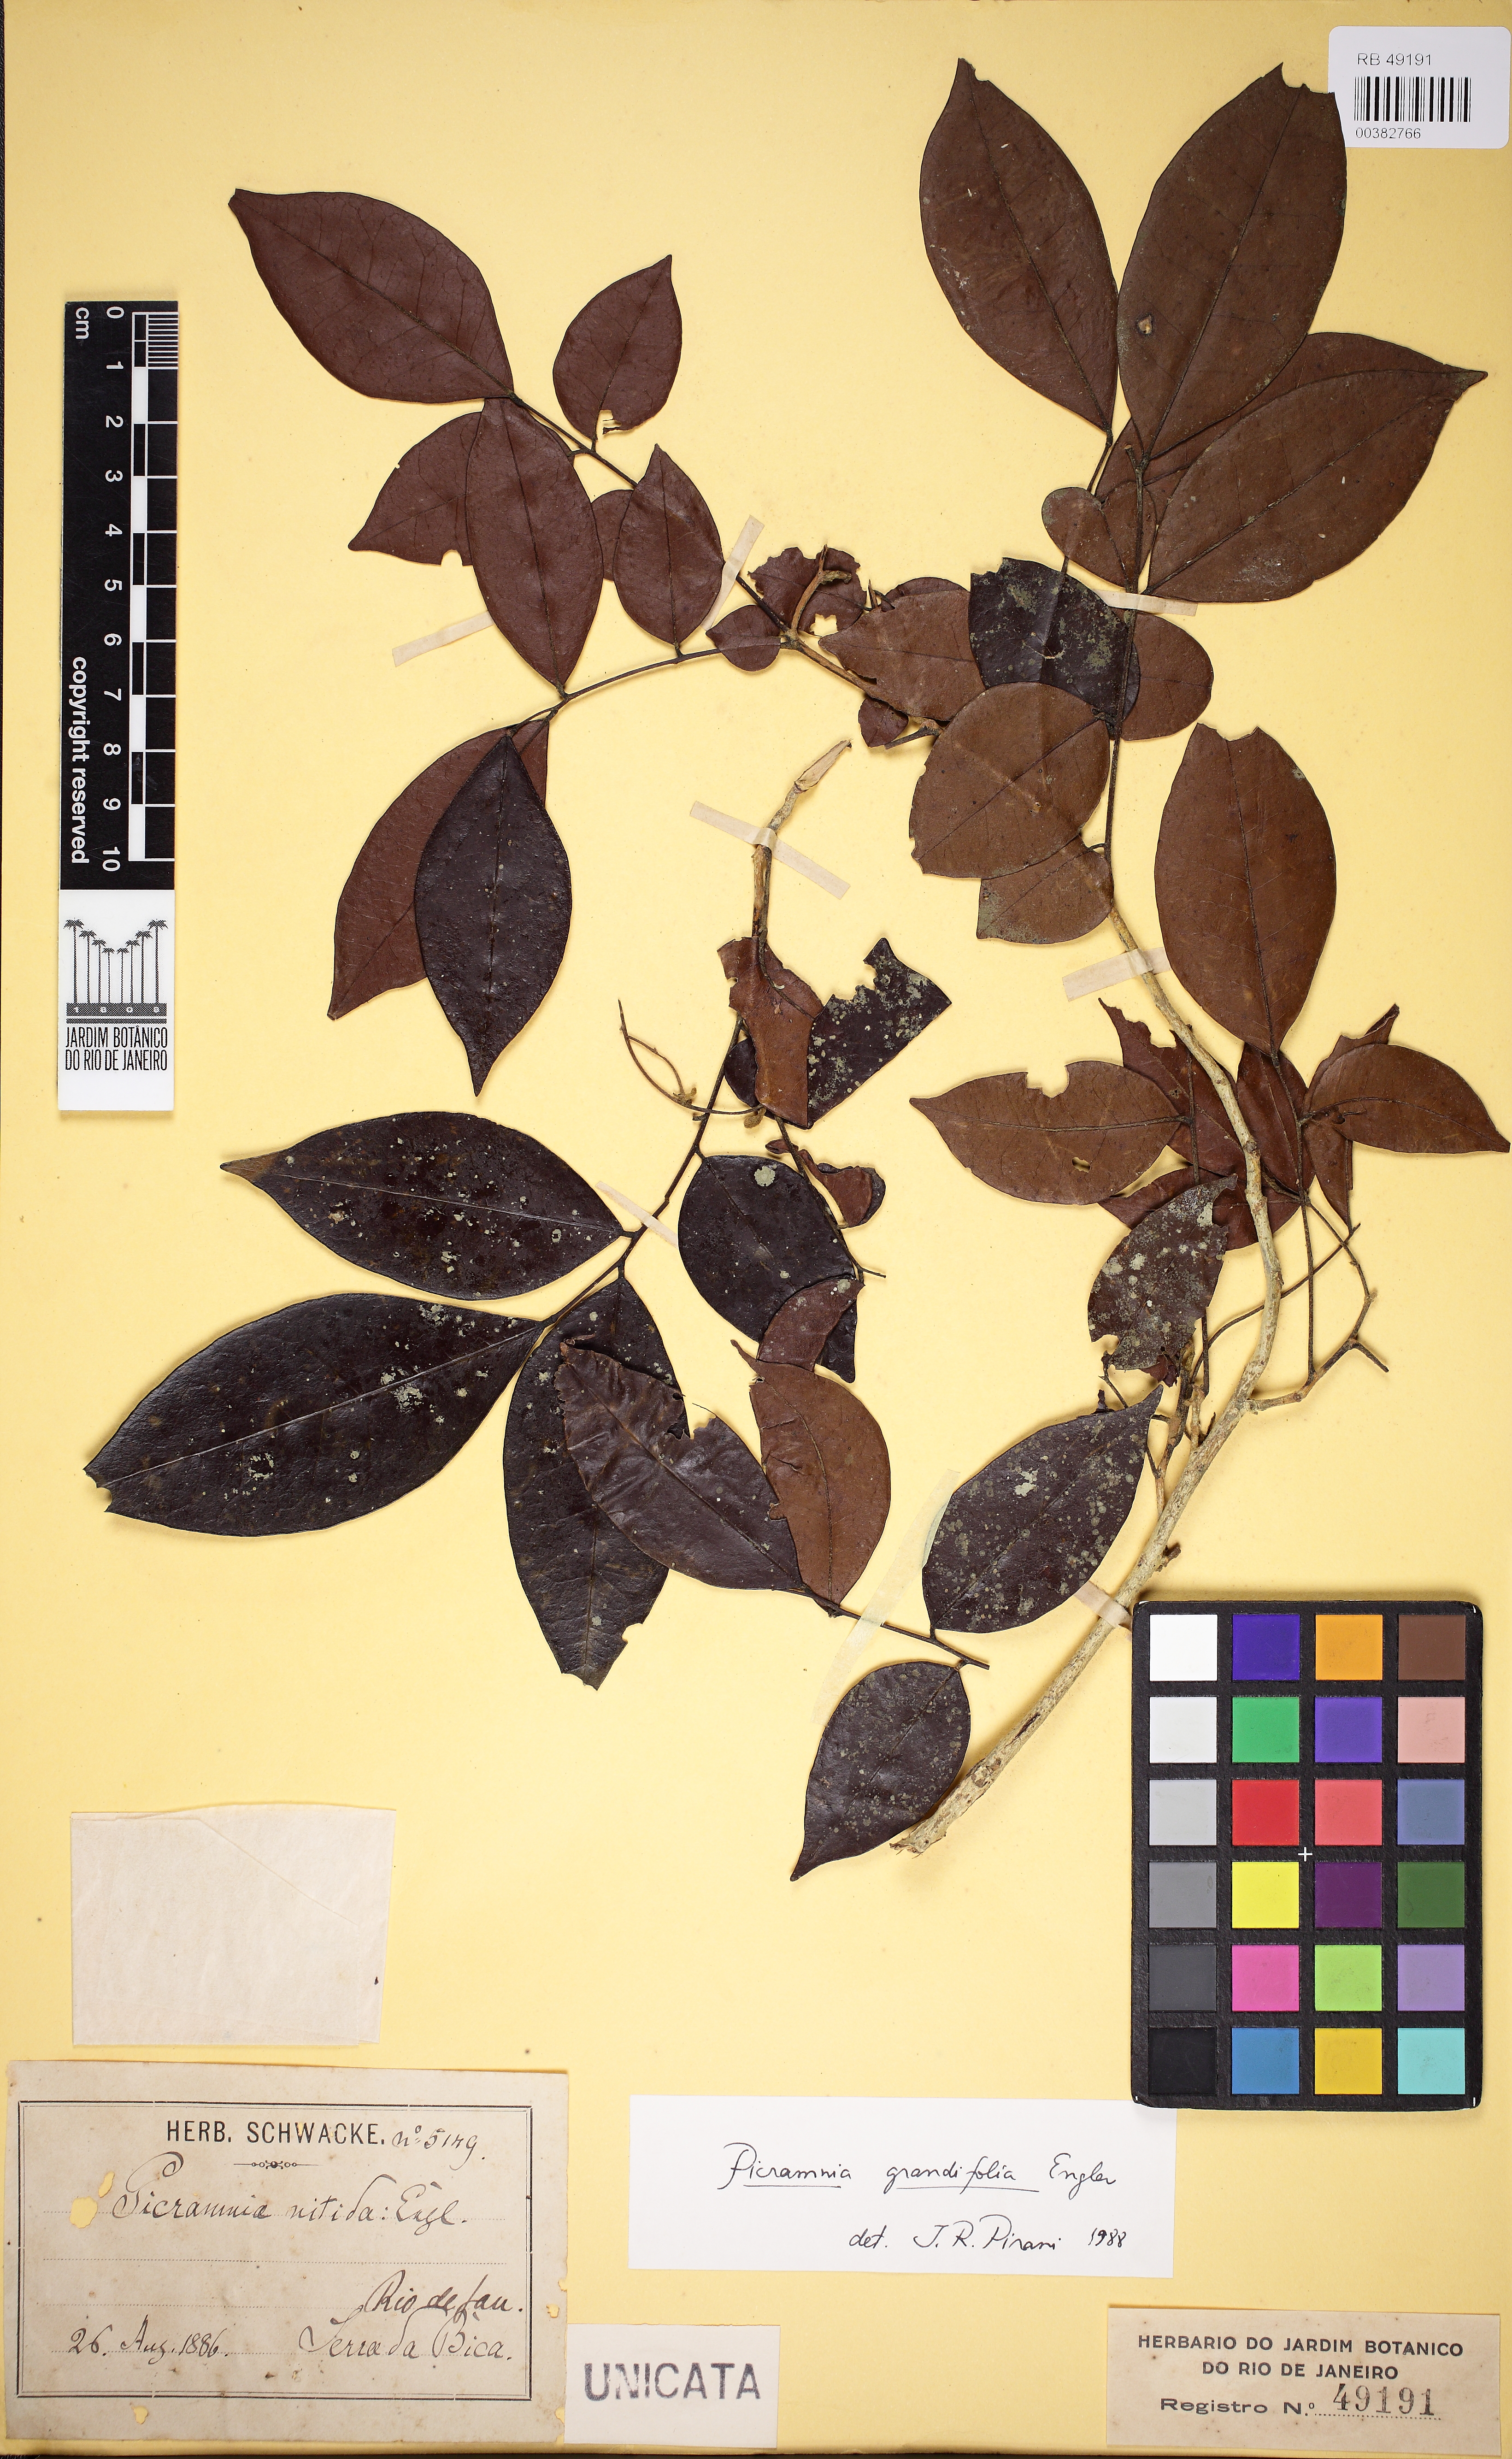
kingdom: Plantae
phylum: Tracheophyta
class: Magnoliopsida
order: Picramniales
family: Picramniaceae
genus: Picramnia
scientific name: Picramnia grandifolia
